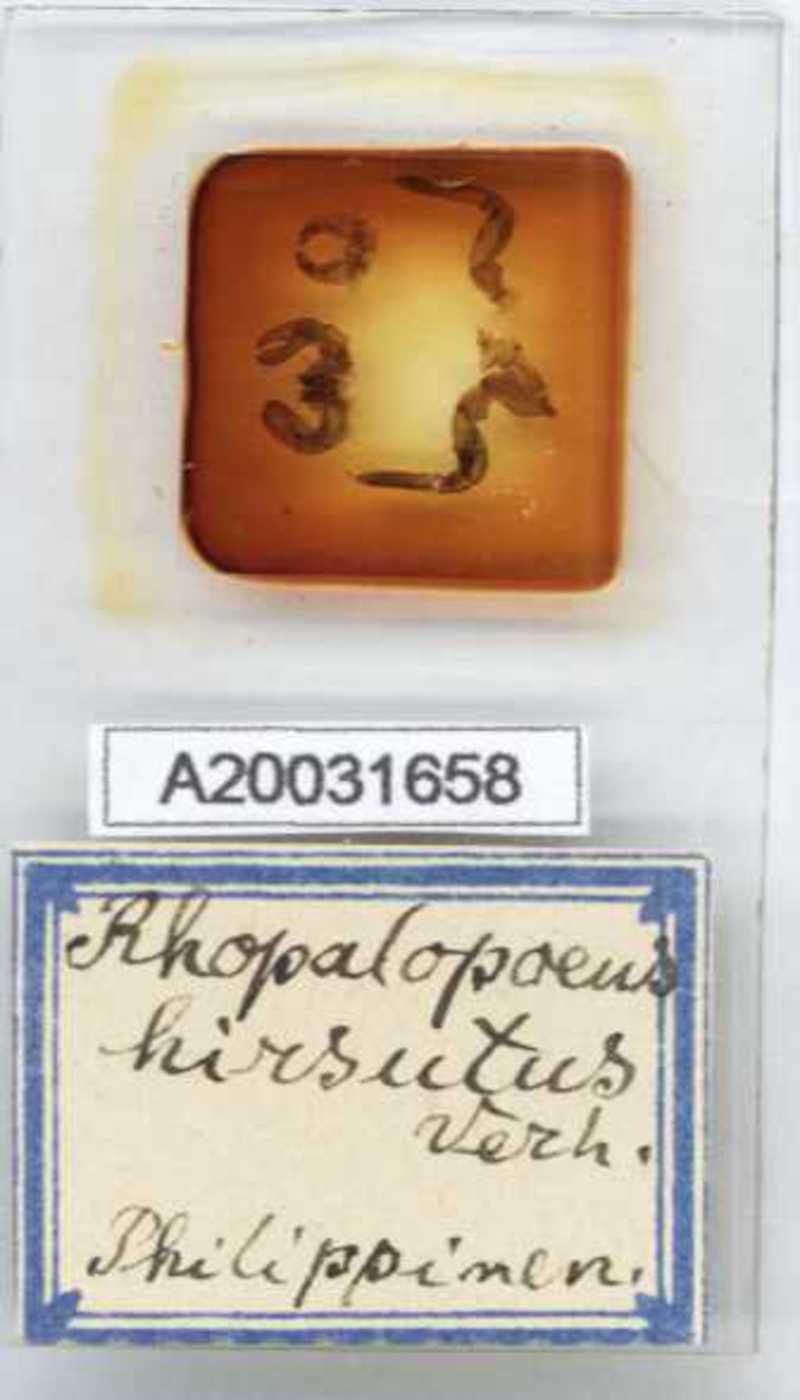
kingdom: Animalia
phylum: Arthropoda
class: Diplopoda
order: Sphaerotheriida
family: Zephroniidae
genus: Rhopalopaeus
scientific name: Rhopalopaeus hirsutus
